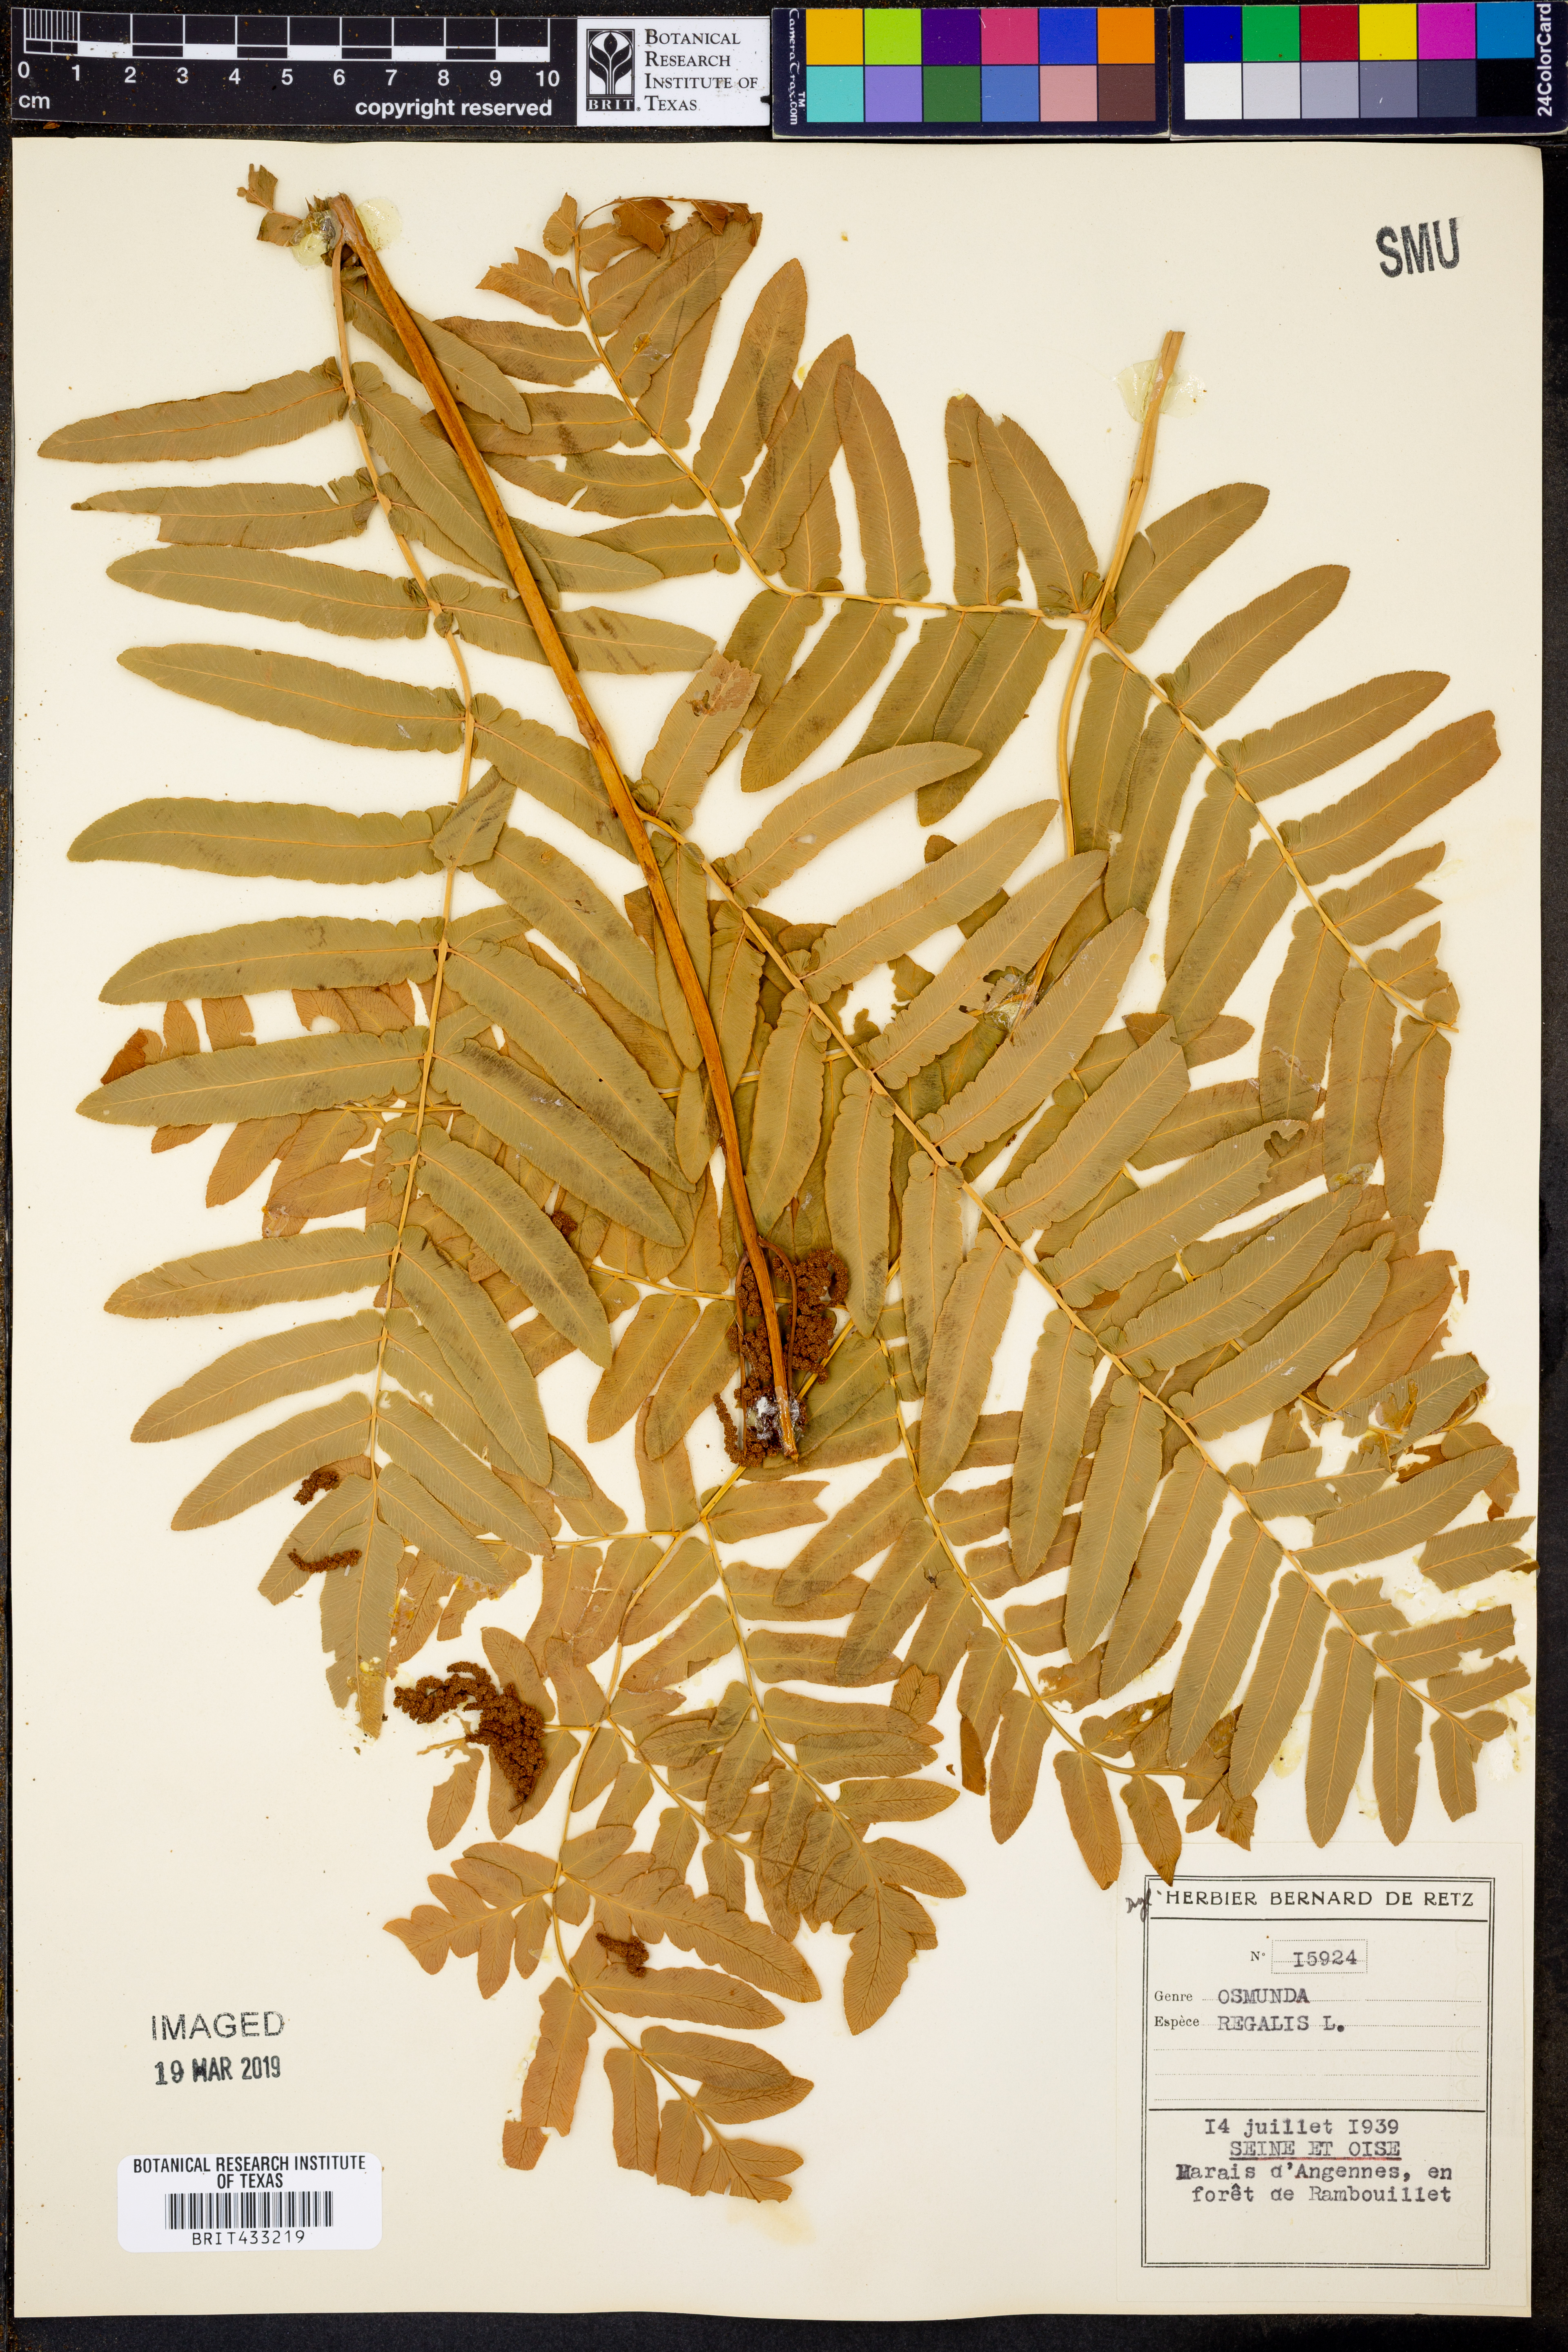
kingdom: Plantae
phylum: Tracheophyta
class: Polypodiopsida
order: Osmundales
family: Osmundaceae
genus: Osmunda
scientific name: Osmunda regalis
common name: Royal fern
